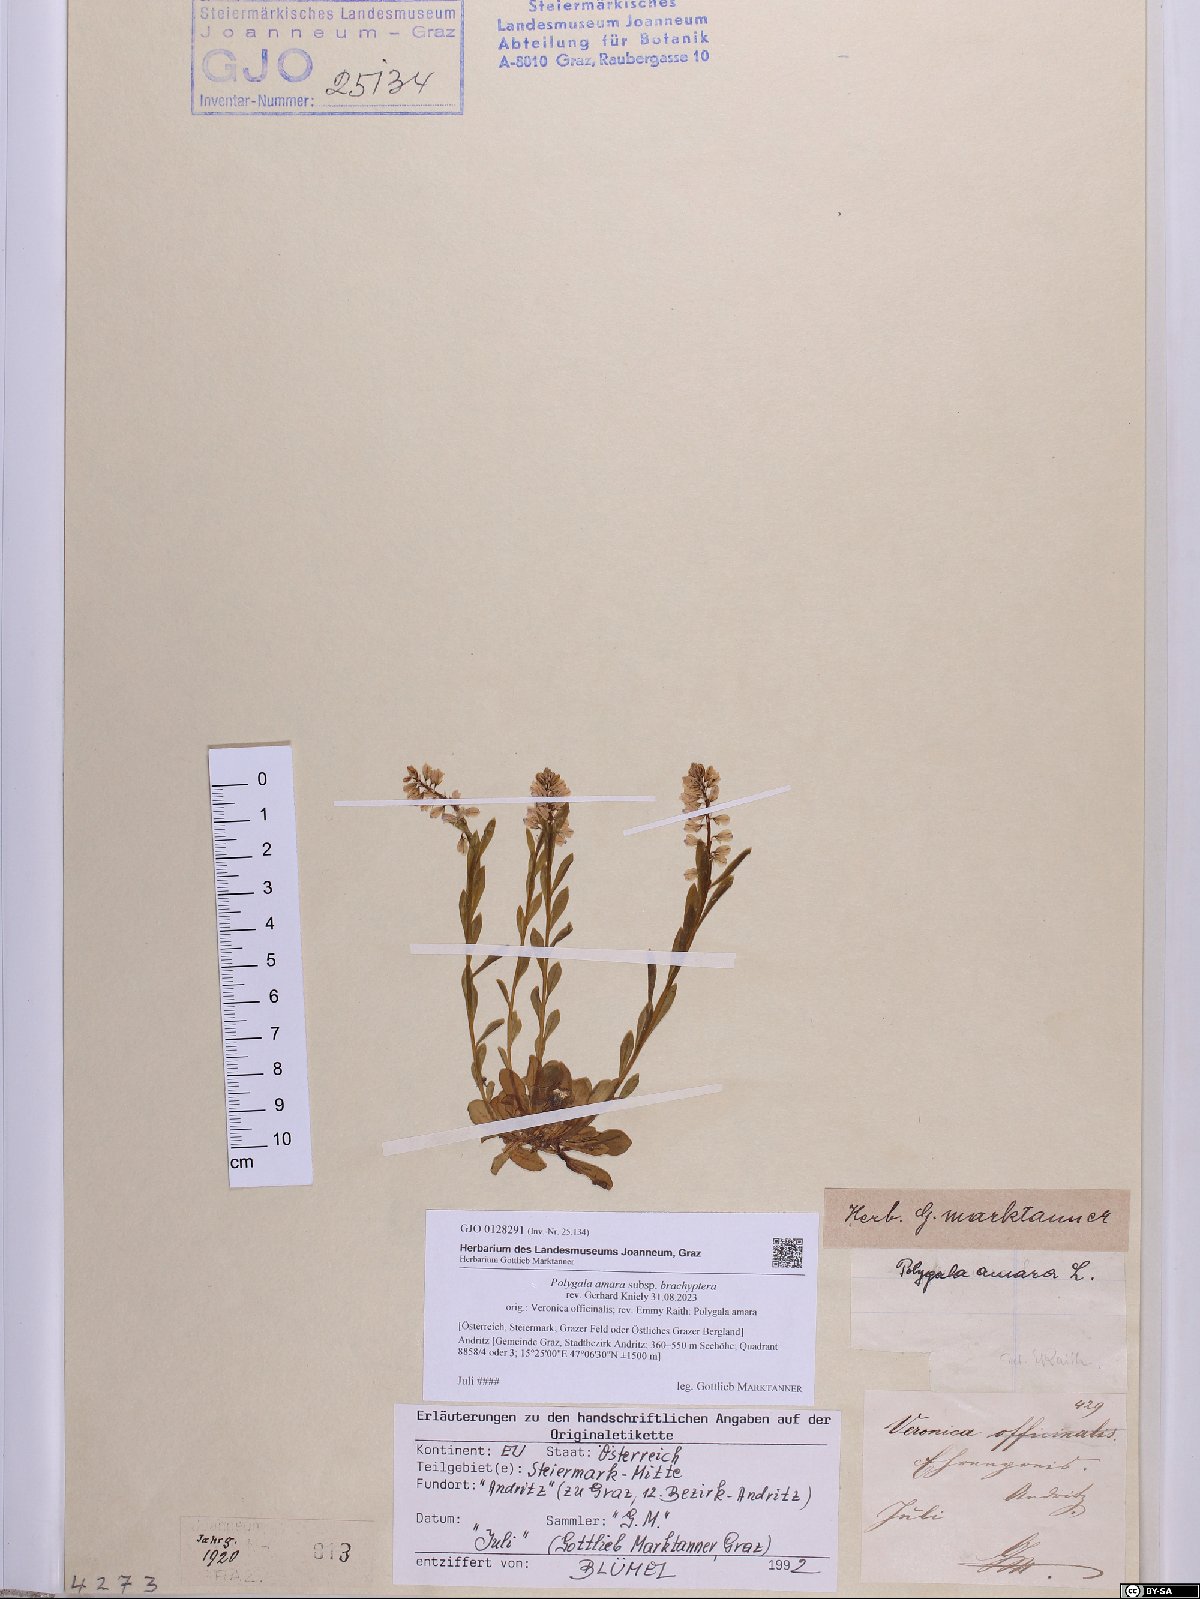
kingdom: Plantae
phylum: Tracheophyta
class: Magnoliopsida
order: Fabales
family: Polygalaceae
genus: Polygala
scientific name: Polygala amara
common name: Milkwort
